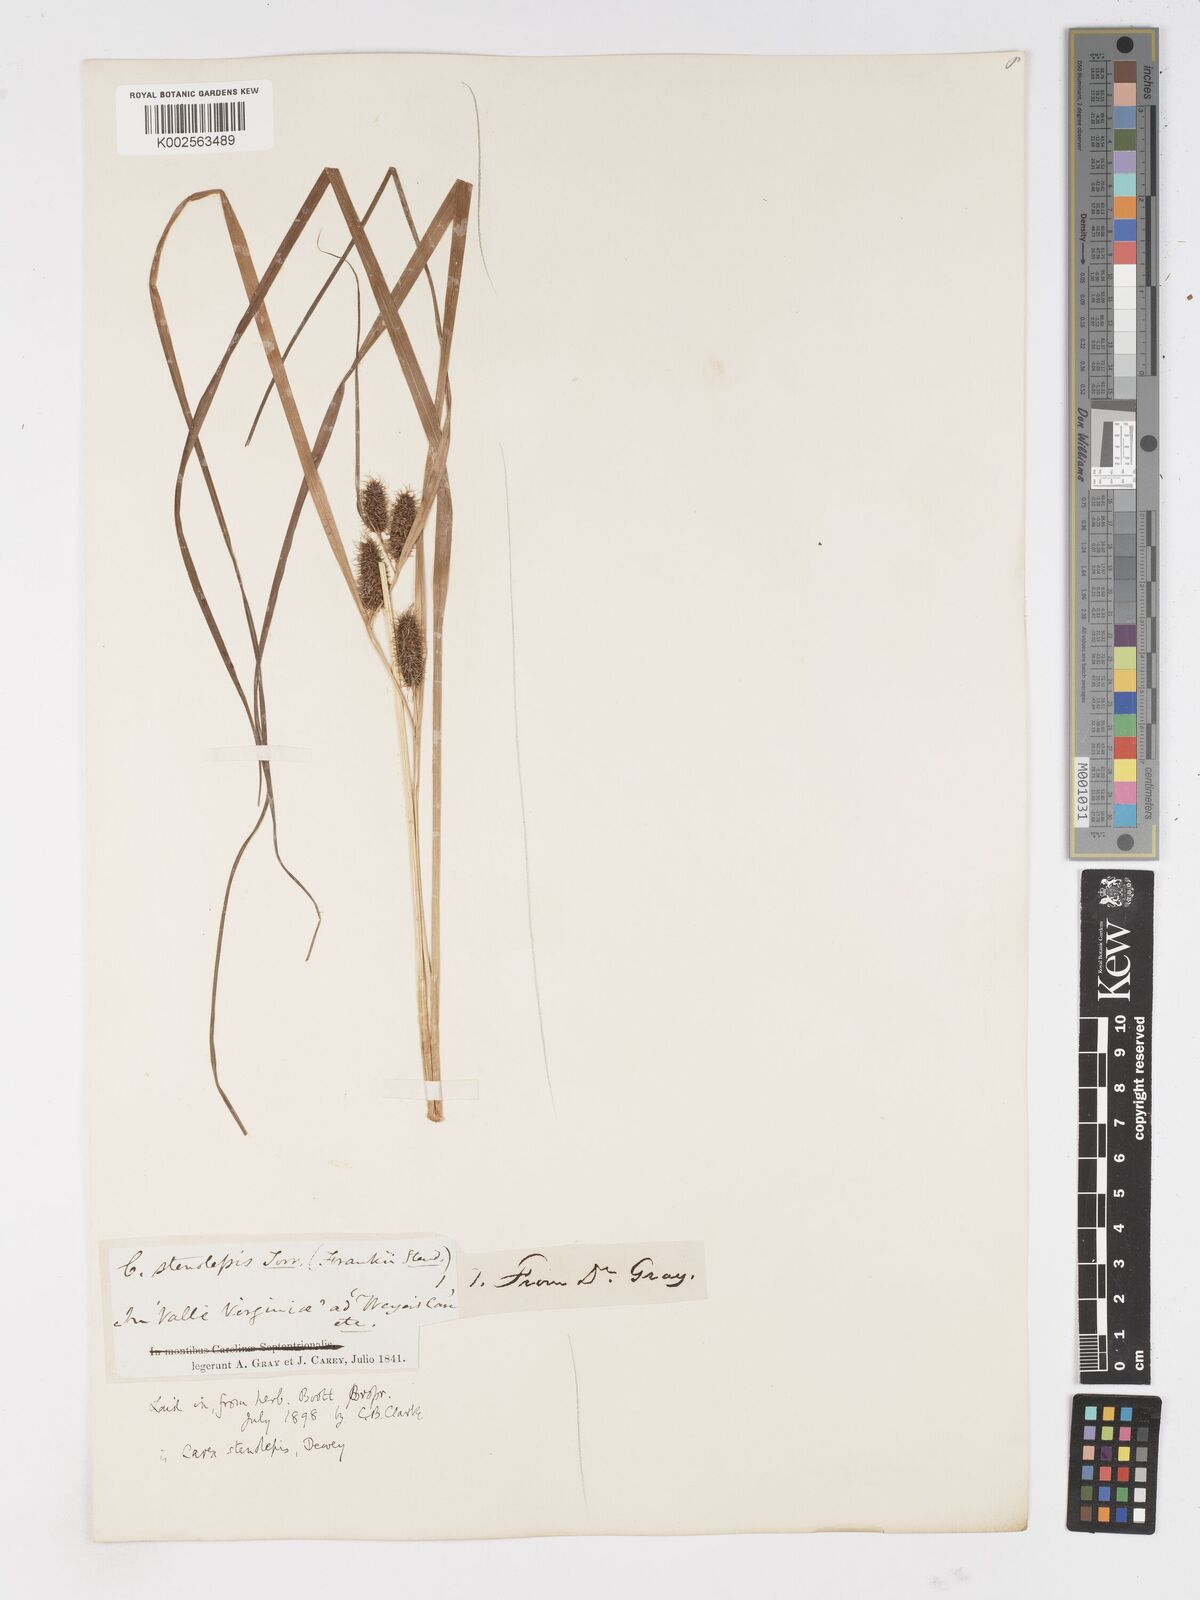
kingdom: Plantae
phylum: Tracheophyta
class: Liliopsida
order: Poales
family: Cyperaceae
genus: Carex
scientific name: Carex frankii
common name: Frank's sedge
